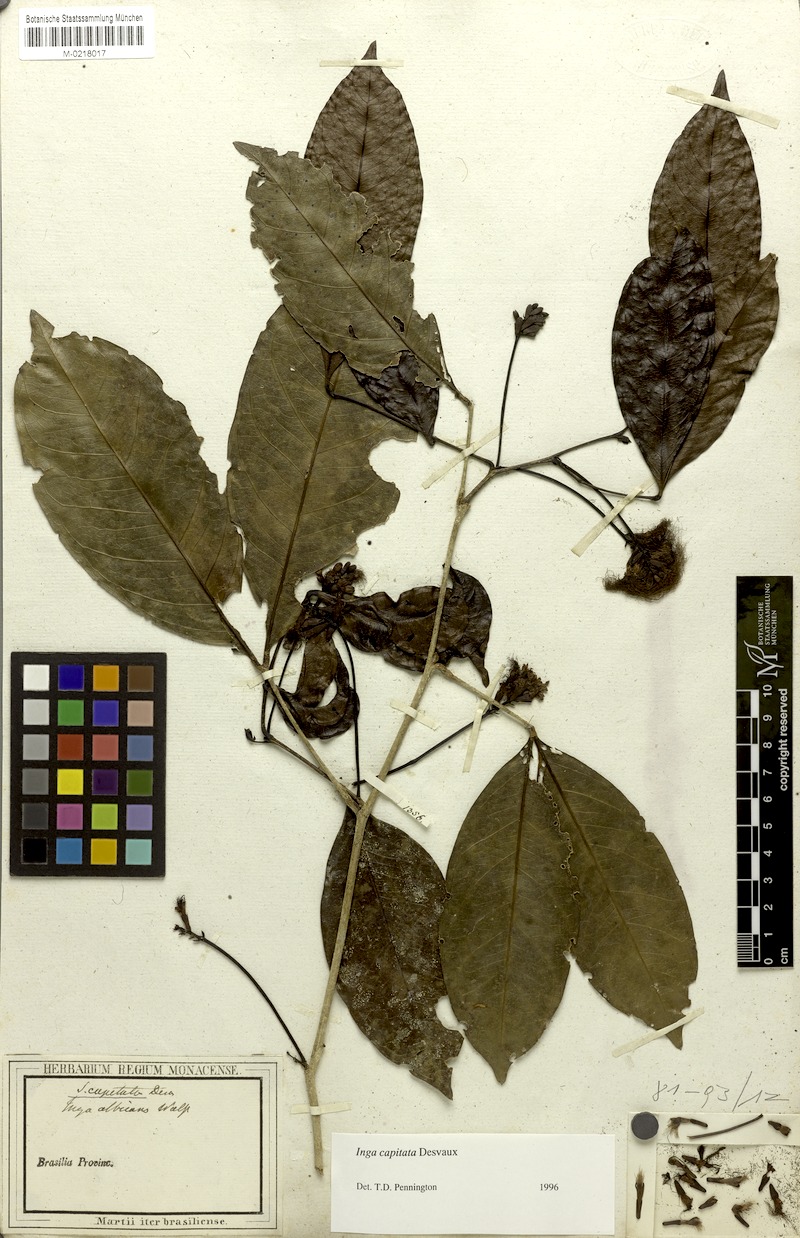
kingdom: Plantae
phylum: Tracheophyta
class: Magnoliopsida
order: Fabales
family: Fabaceae
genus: Inga
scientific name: Inga capitata
